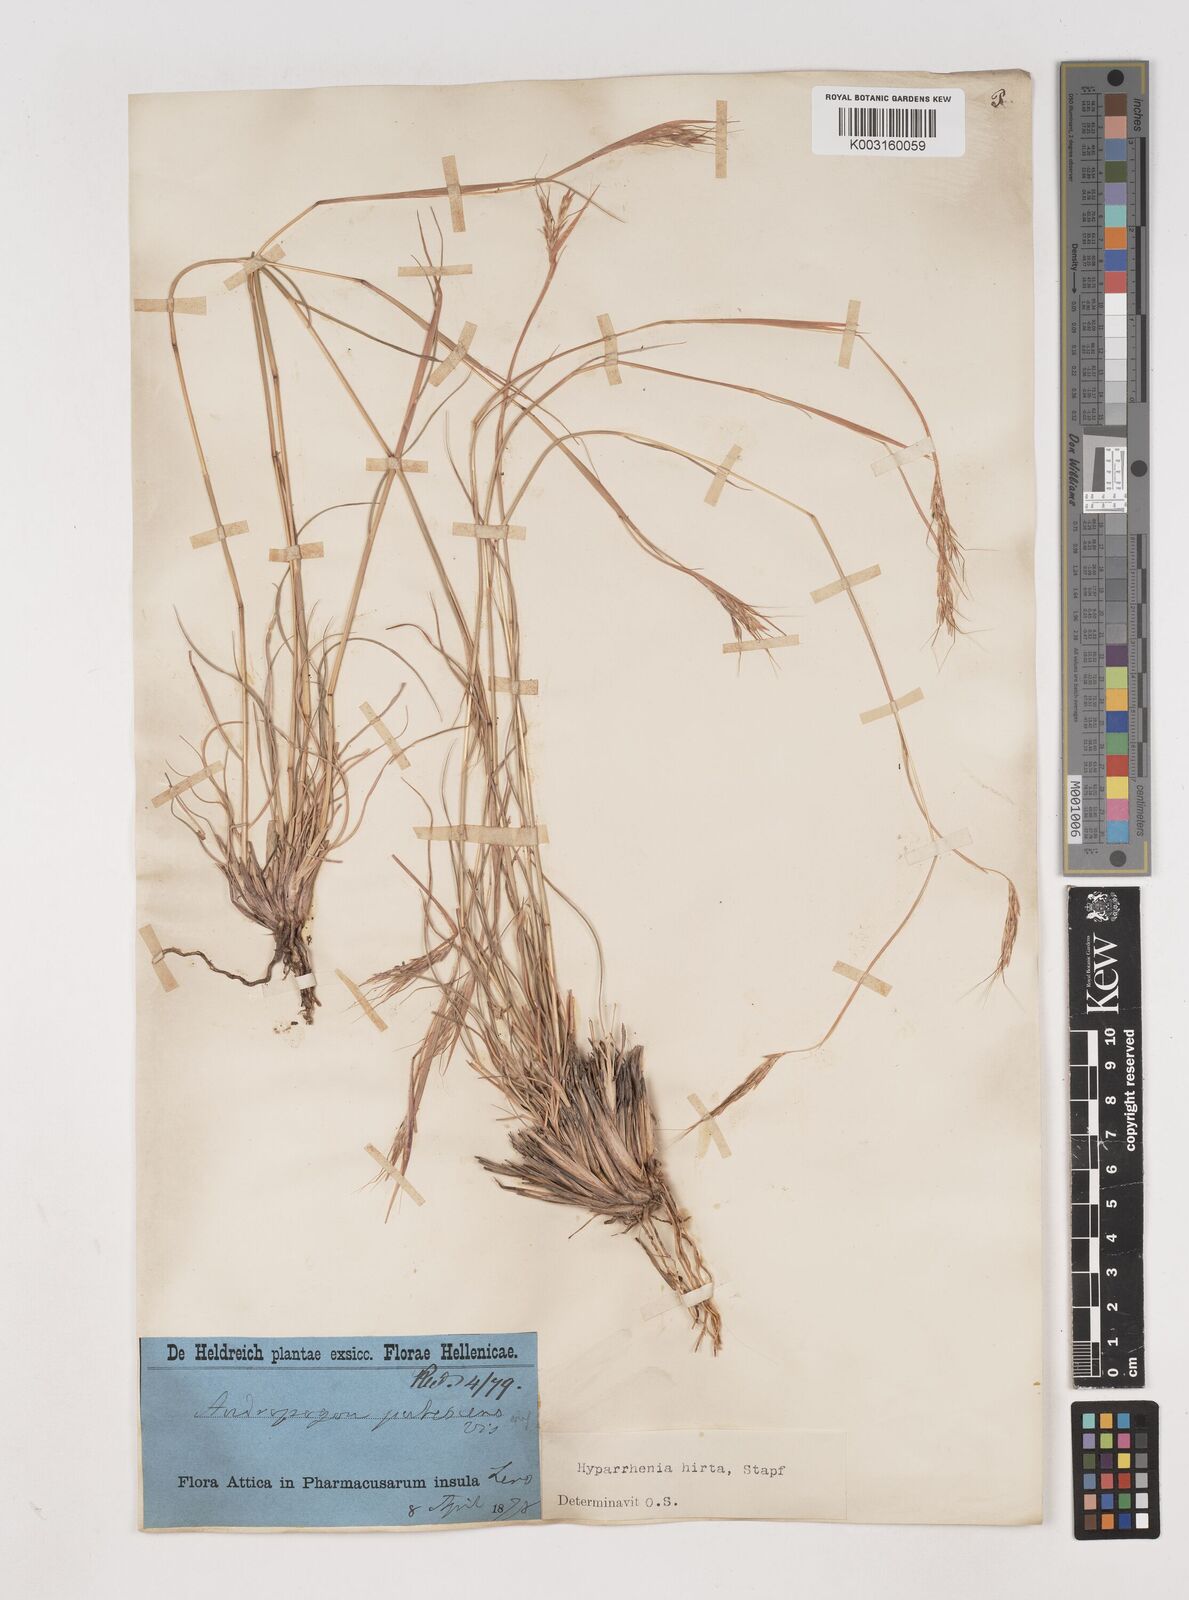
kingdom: Plantae
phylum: Tracheophyta
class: Liliopsida
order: Poales
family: Poaceae
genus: Hyparrhenia
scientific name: Hyparrhenia hirta
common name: Thatching grass
